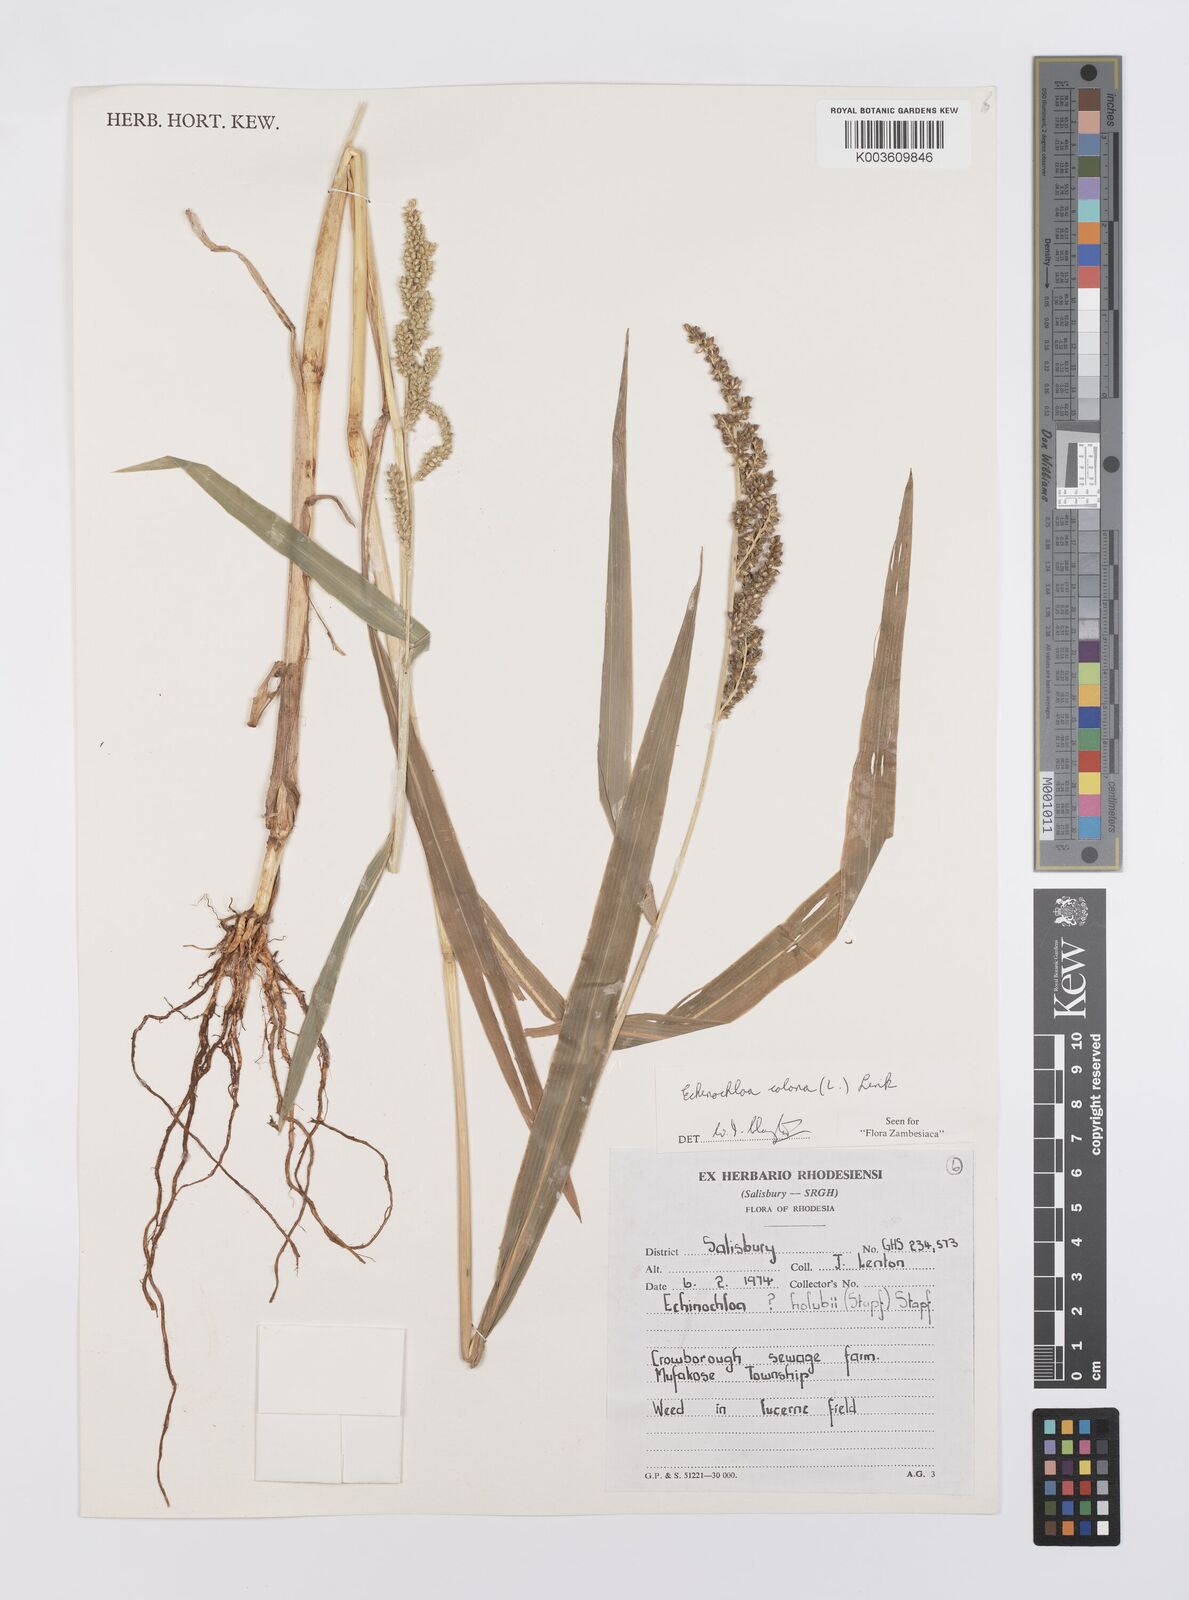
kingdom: Plantae
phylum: Tracheophyta
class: Liliopsida
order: Poales
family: Poaceae
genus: Echinochloa
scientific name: Echinochloa colonum
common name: Jungle rice
